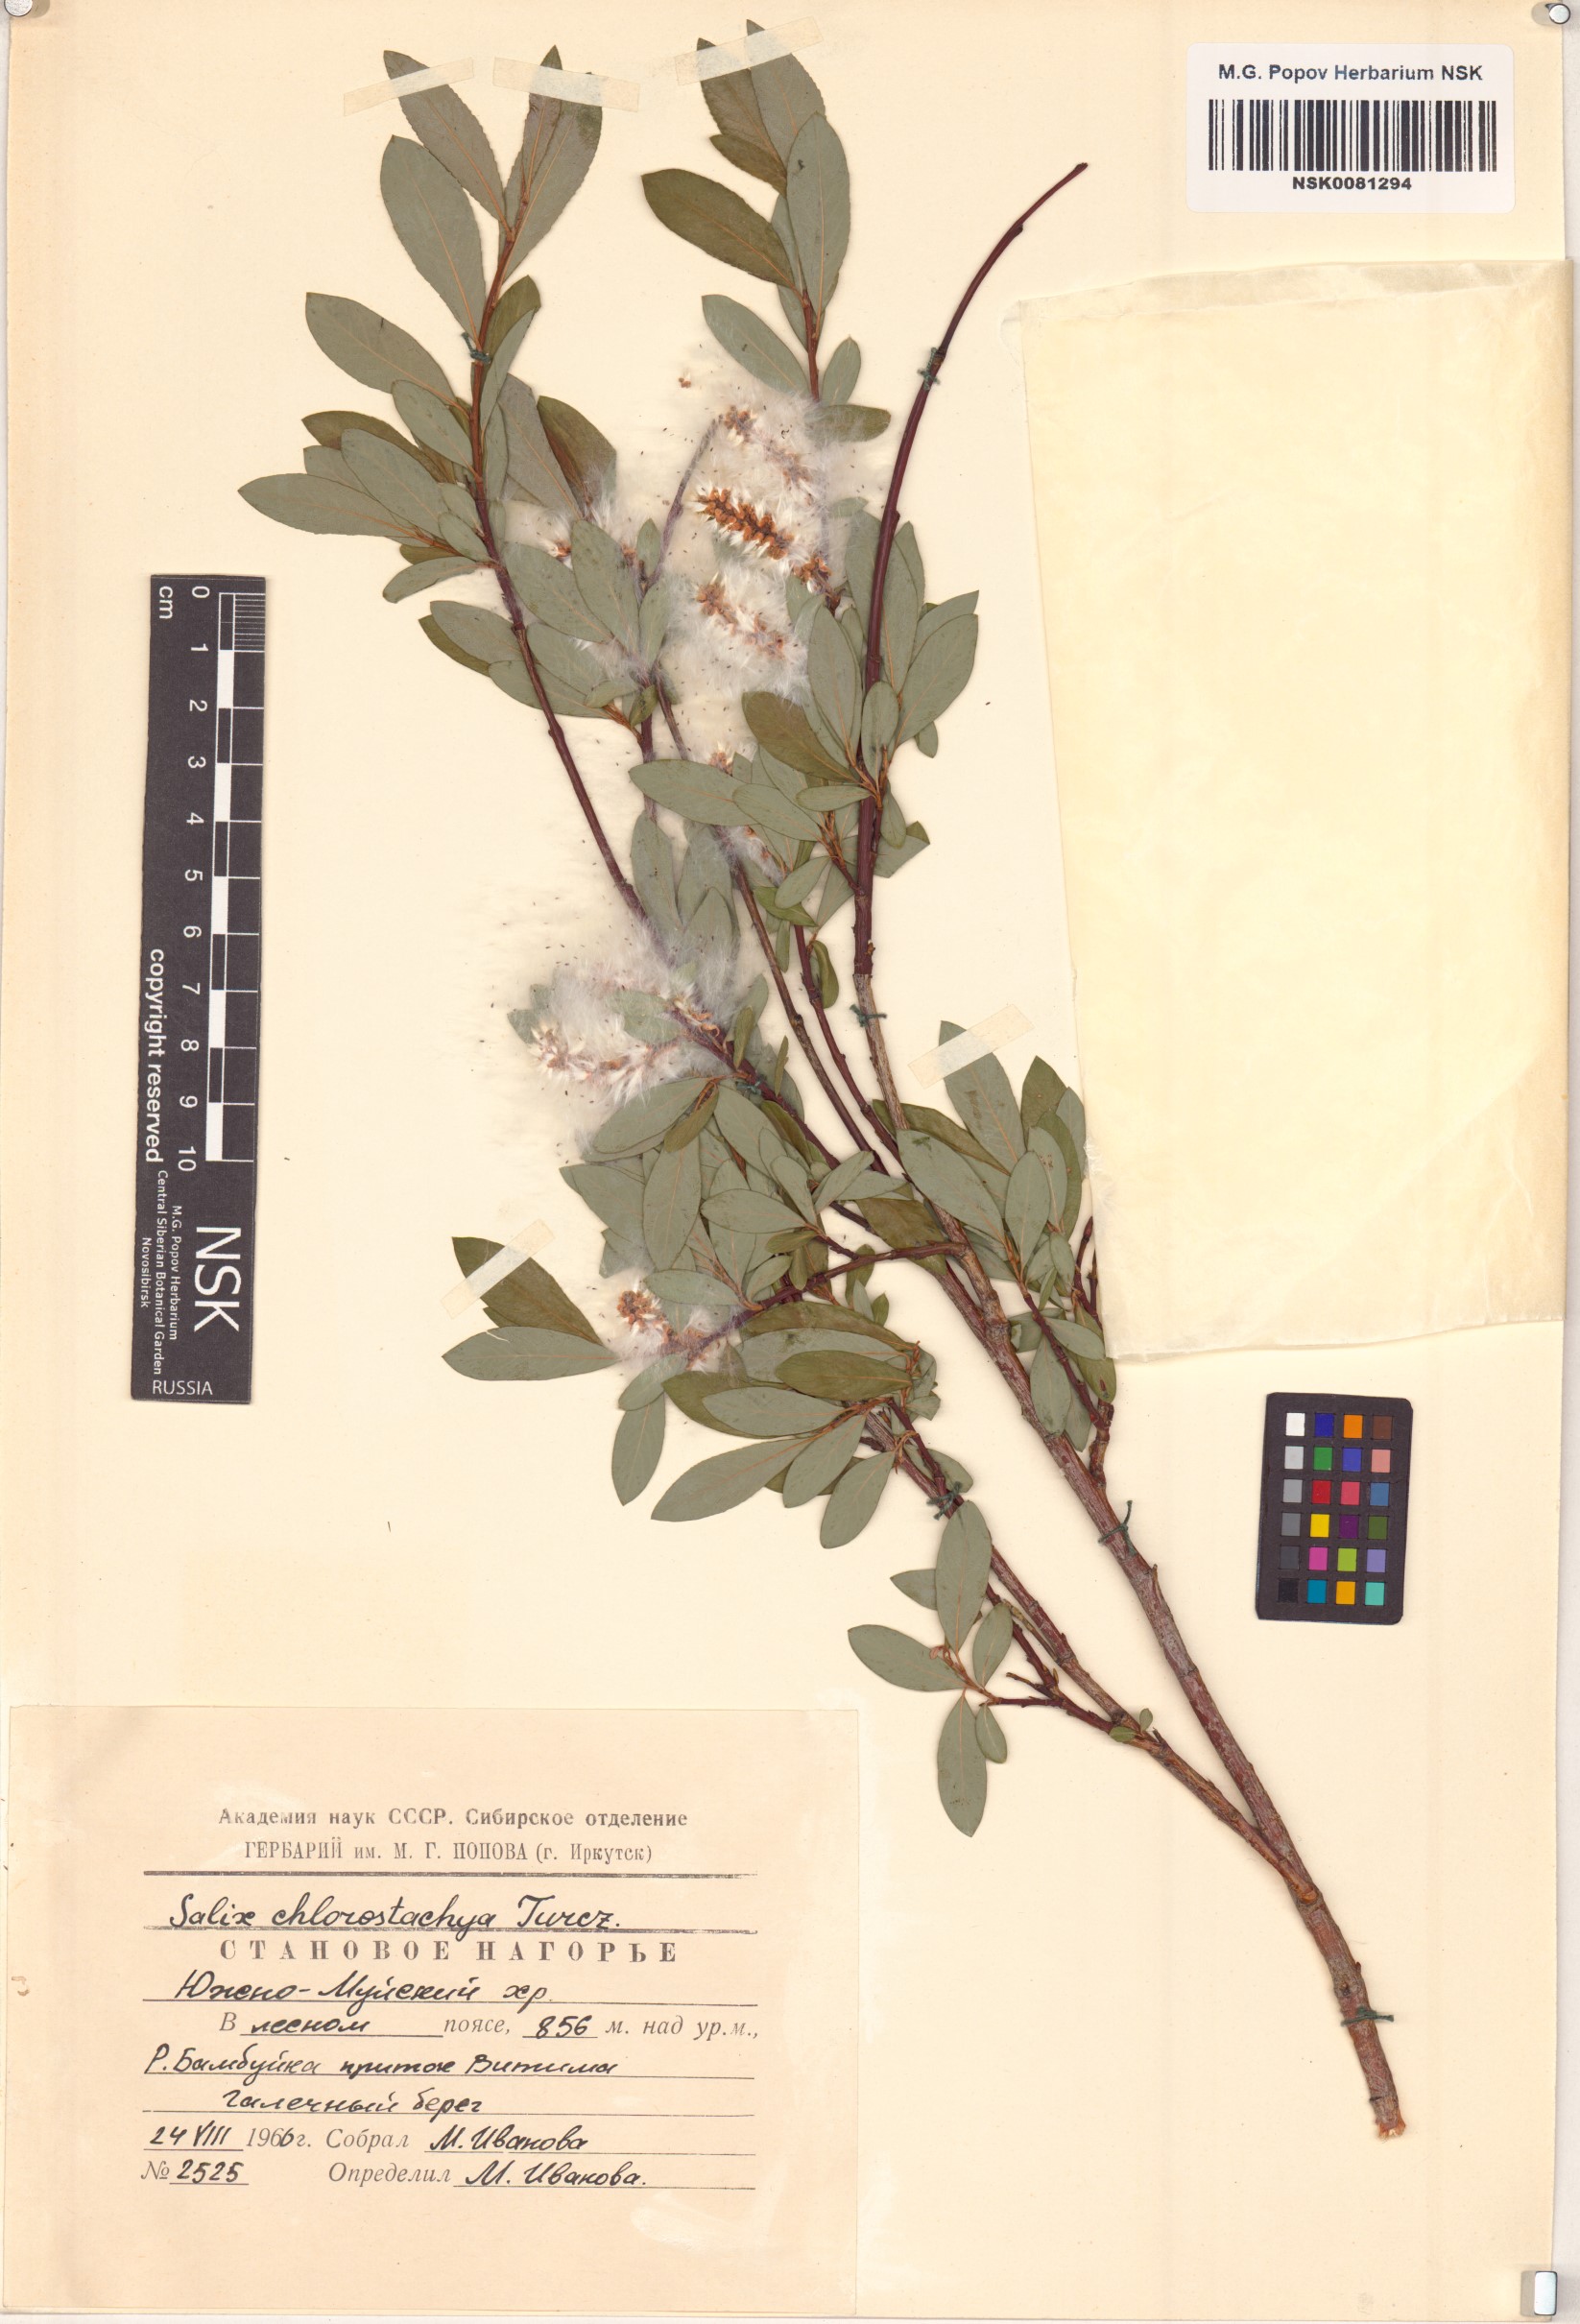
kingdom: Plantae
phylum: Tracheophyta
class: Magnoliopsida
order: Malpighiales
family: Salicaceae
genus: Salix
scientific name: Salix rhamnifolia
